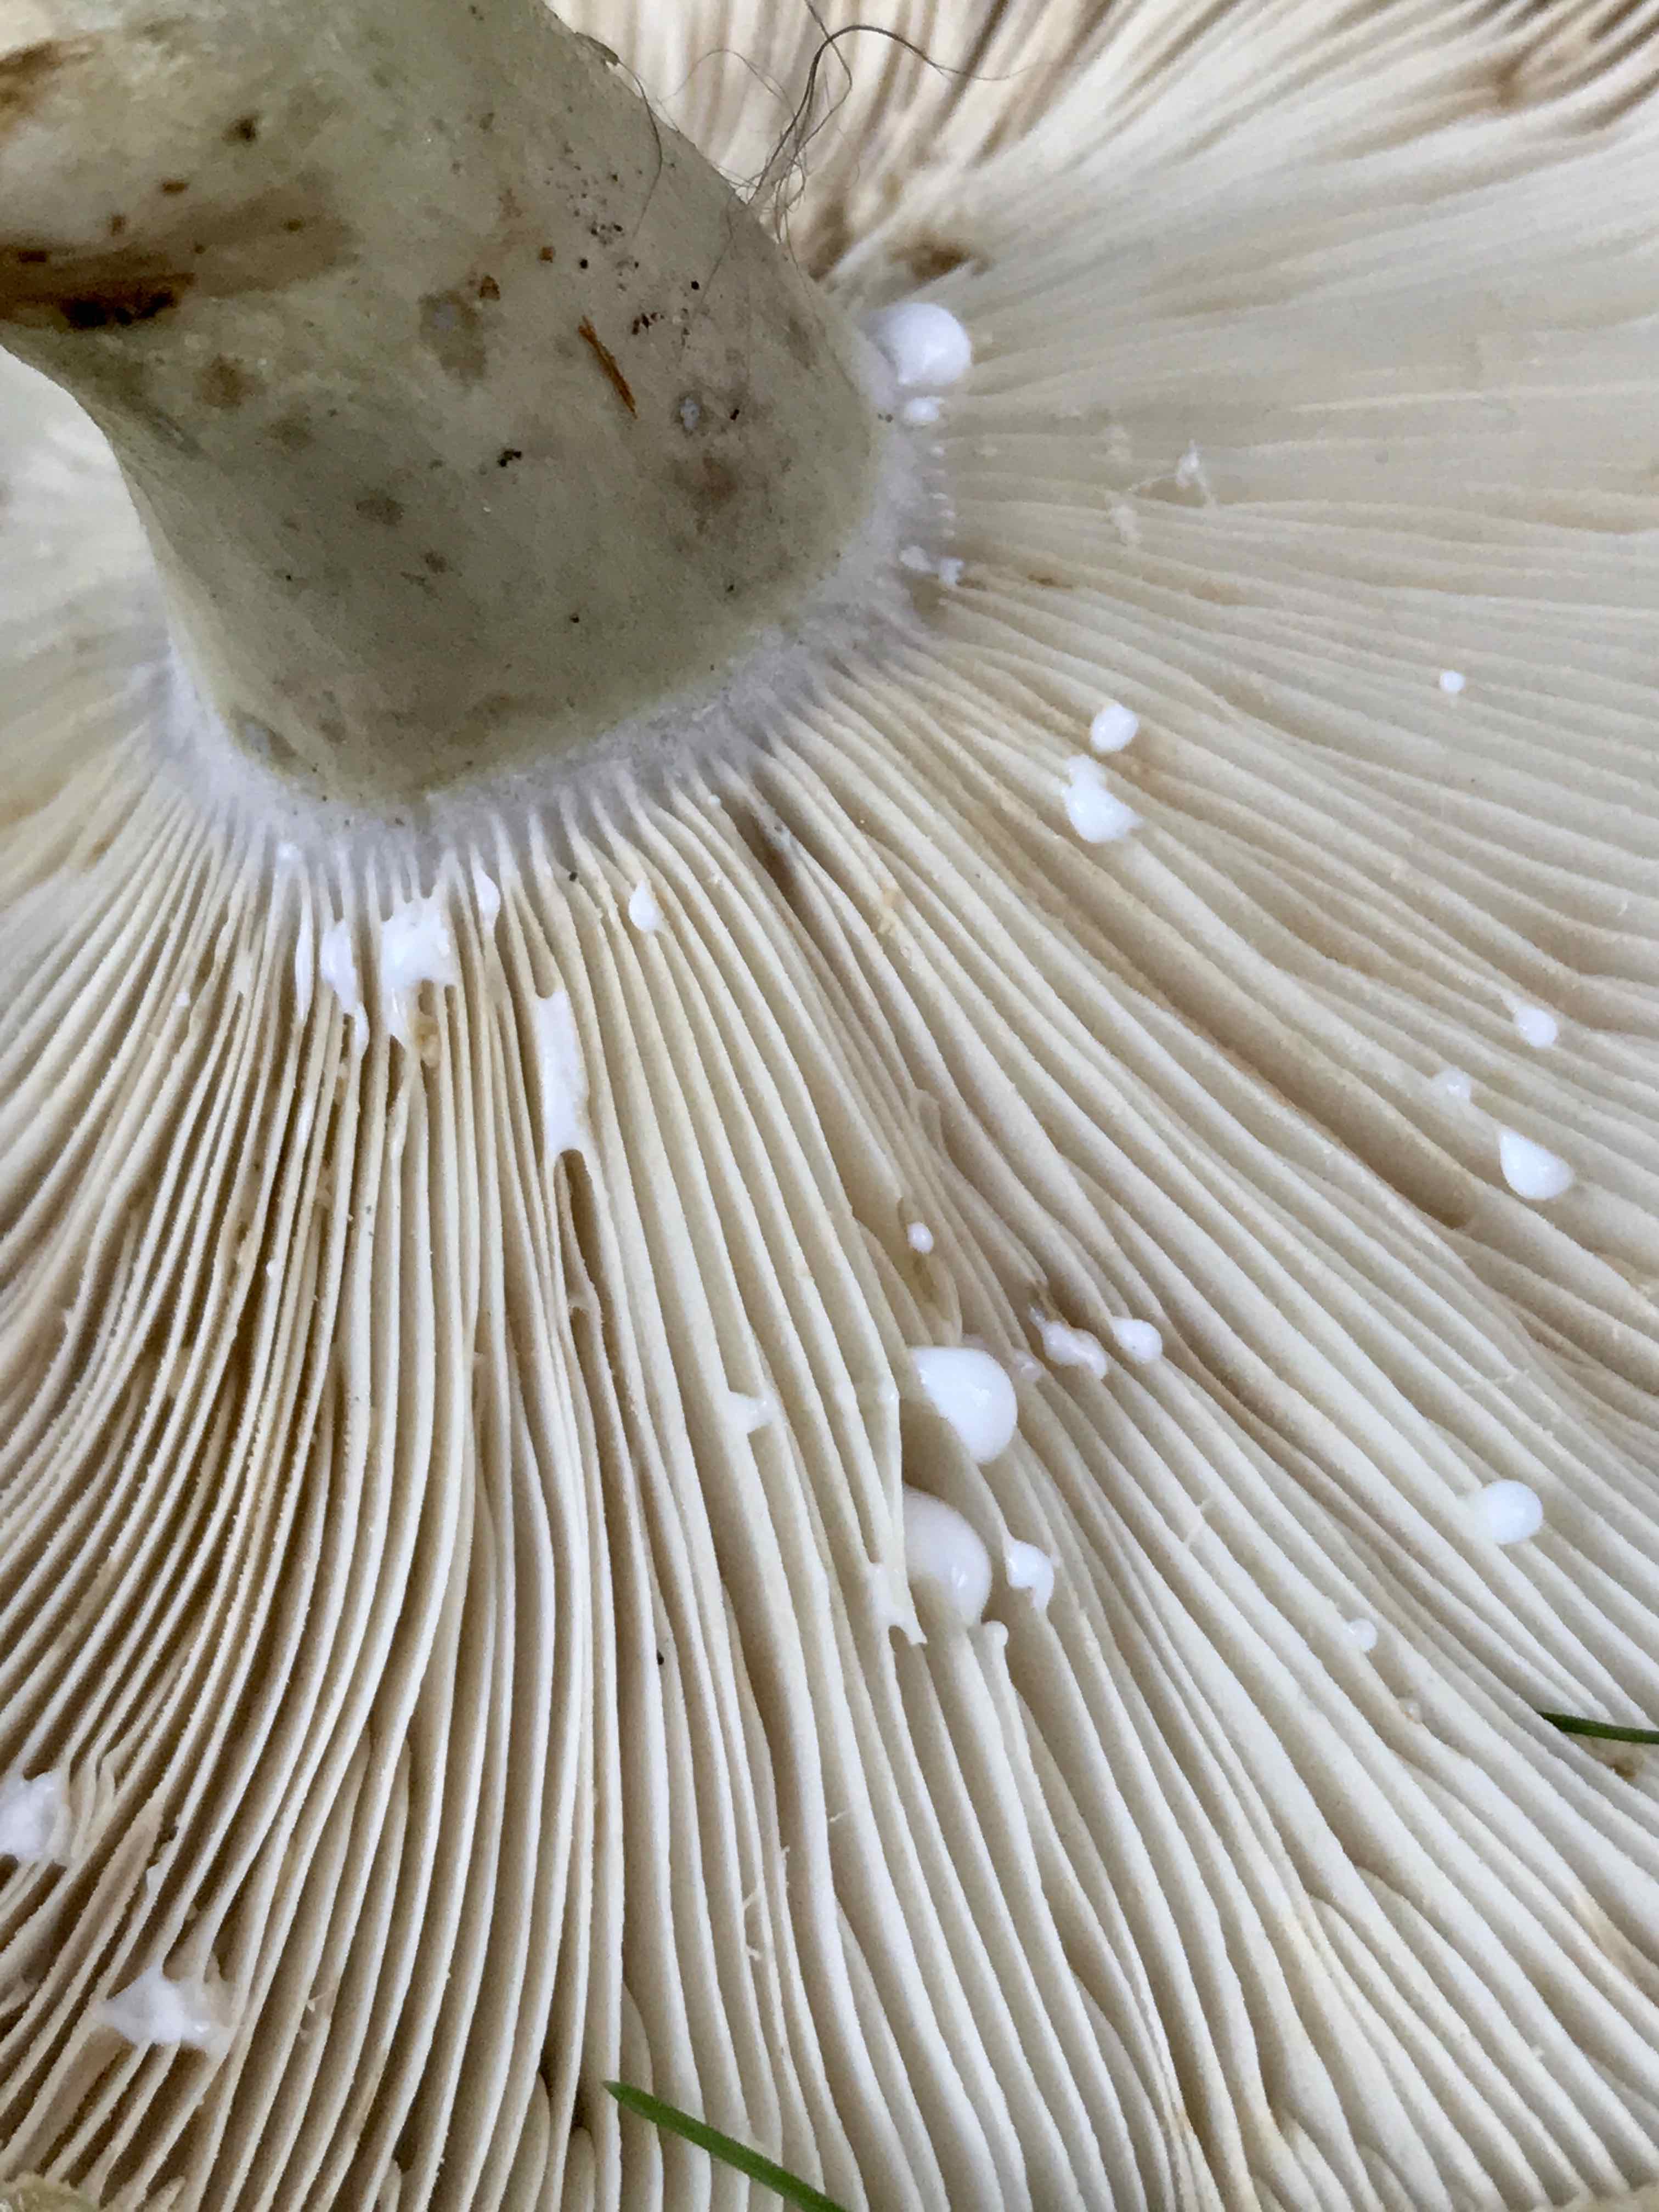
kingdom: Fungi
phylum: Basidiomycota
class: Agaricomycetes
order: Russulales
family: Russulaceae
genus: Lactarius
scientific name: Lactarius blennius
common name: dråbeplettet mælkehat
